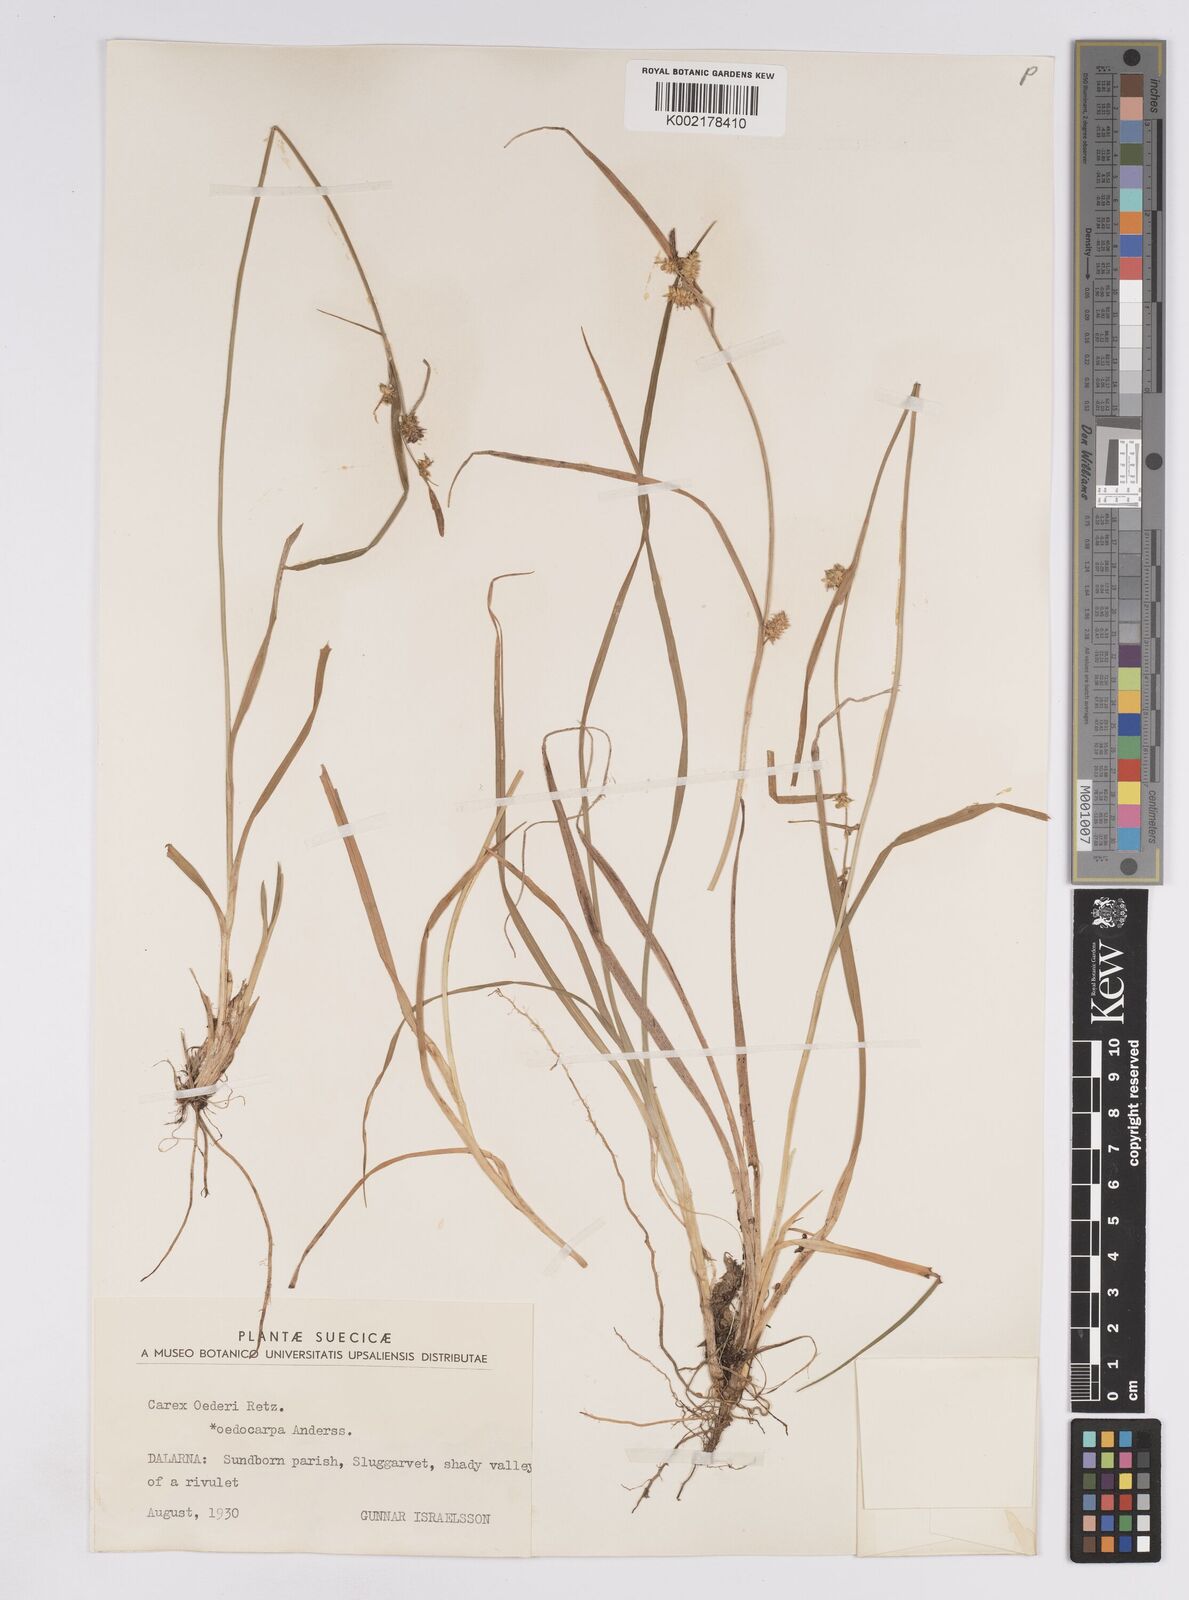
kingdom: Plantae
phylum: Tracheophyta
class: Liliopsida
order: Poales
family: Cyperaceae
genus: Carex
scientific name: Carex demissa
